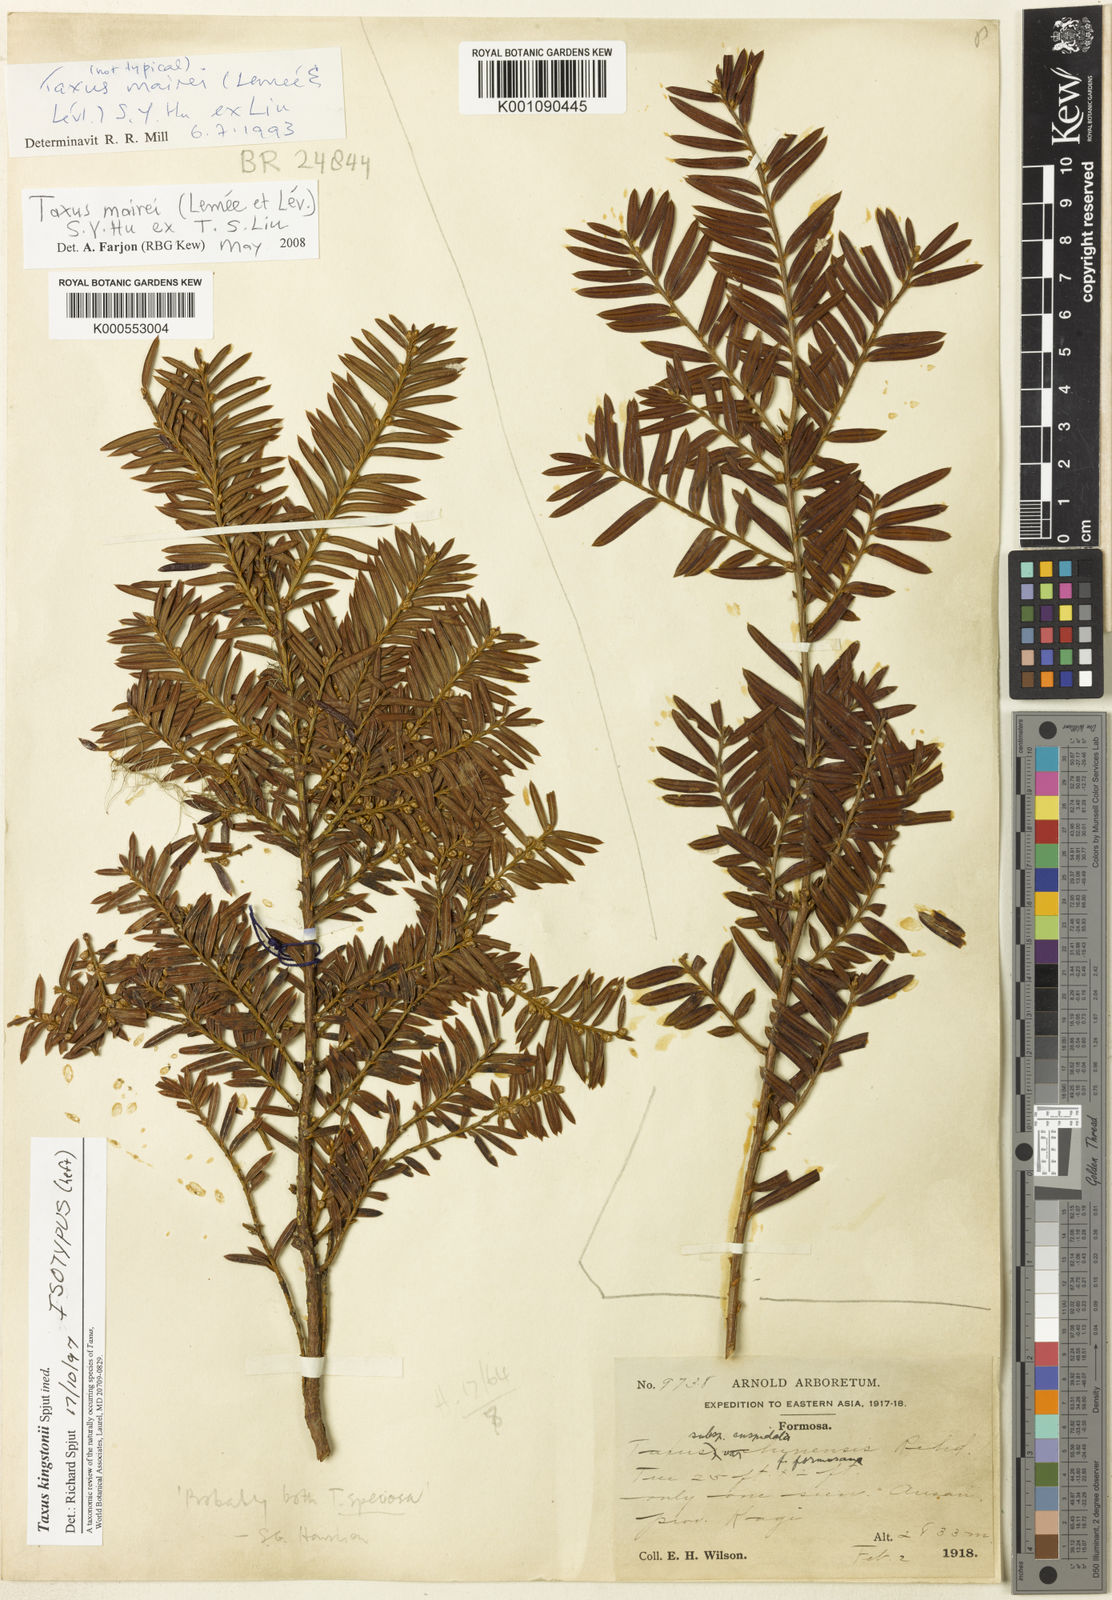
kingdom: Plantae
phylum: Tracheophyta
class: Pinopsida
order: Pinales
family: Taxaceae
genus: Taxus
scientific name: Taxus chinensis
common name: Chinese yew
